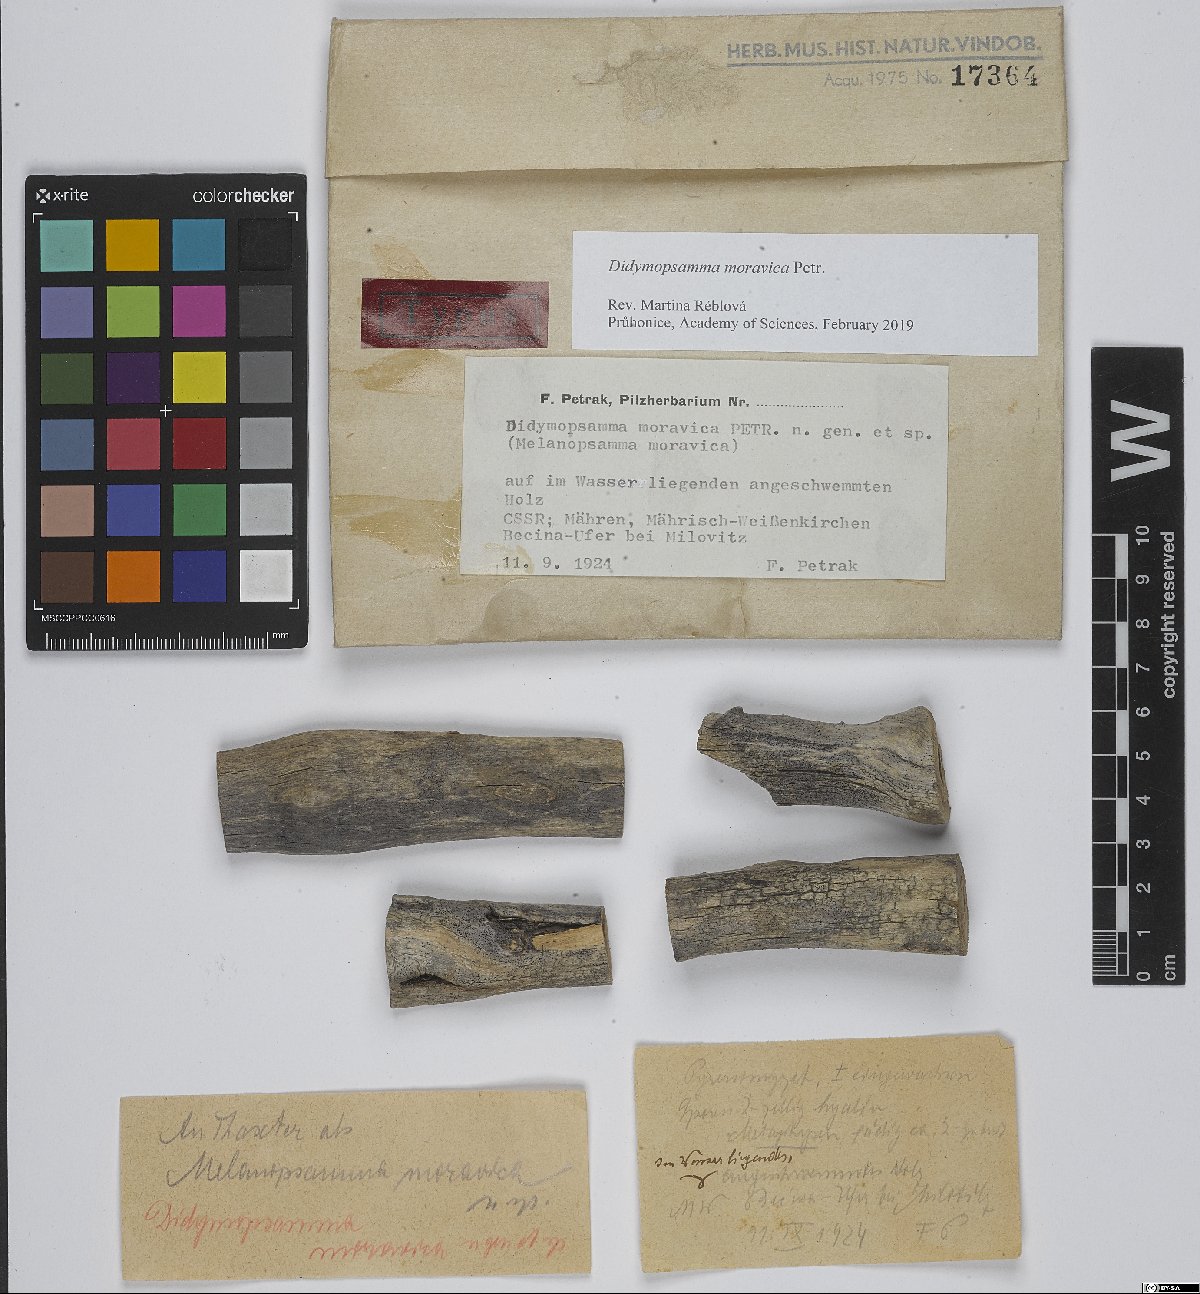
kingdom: Fungi
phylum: Ascomycota
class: Sordariomycetes
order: Chaetosphaeriales
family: Chaetosphaeriaceae
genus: Didymopsamma
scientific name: Didymopsamma moravica
